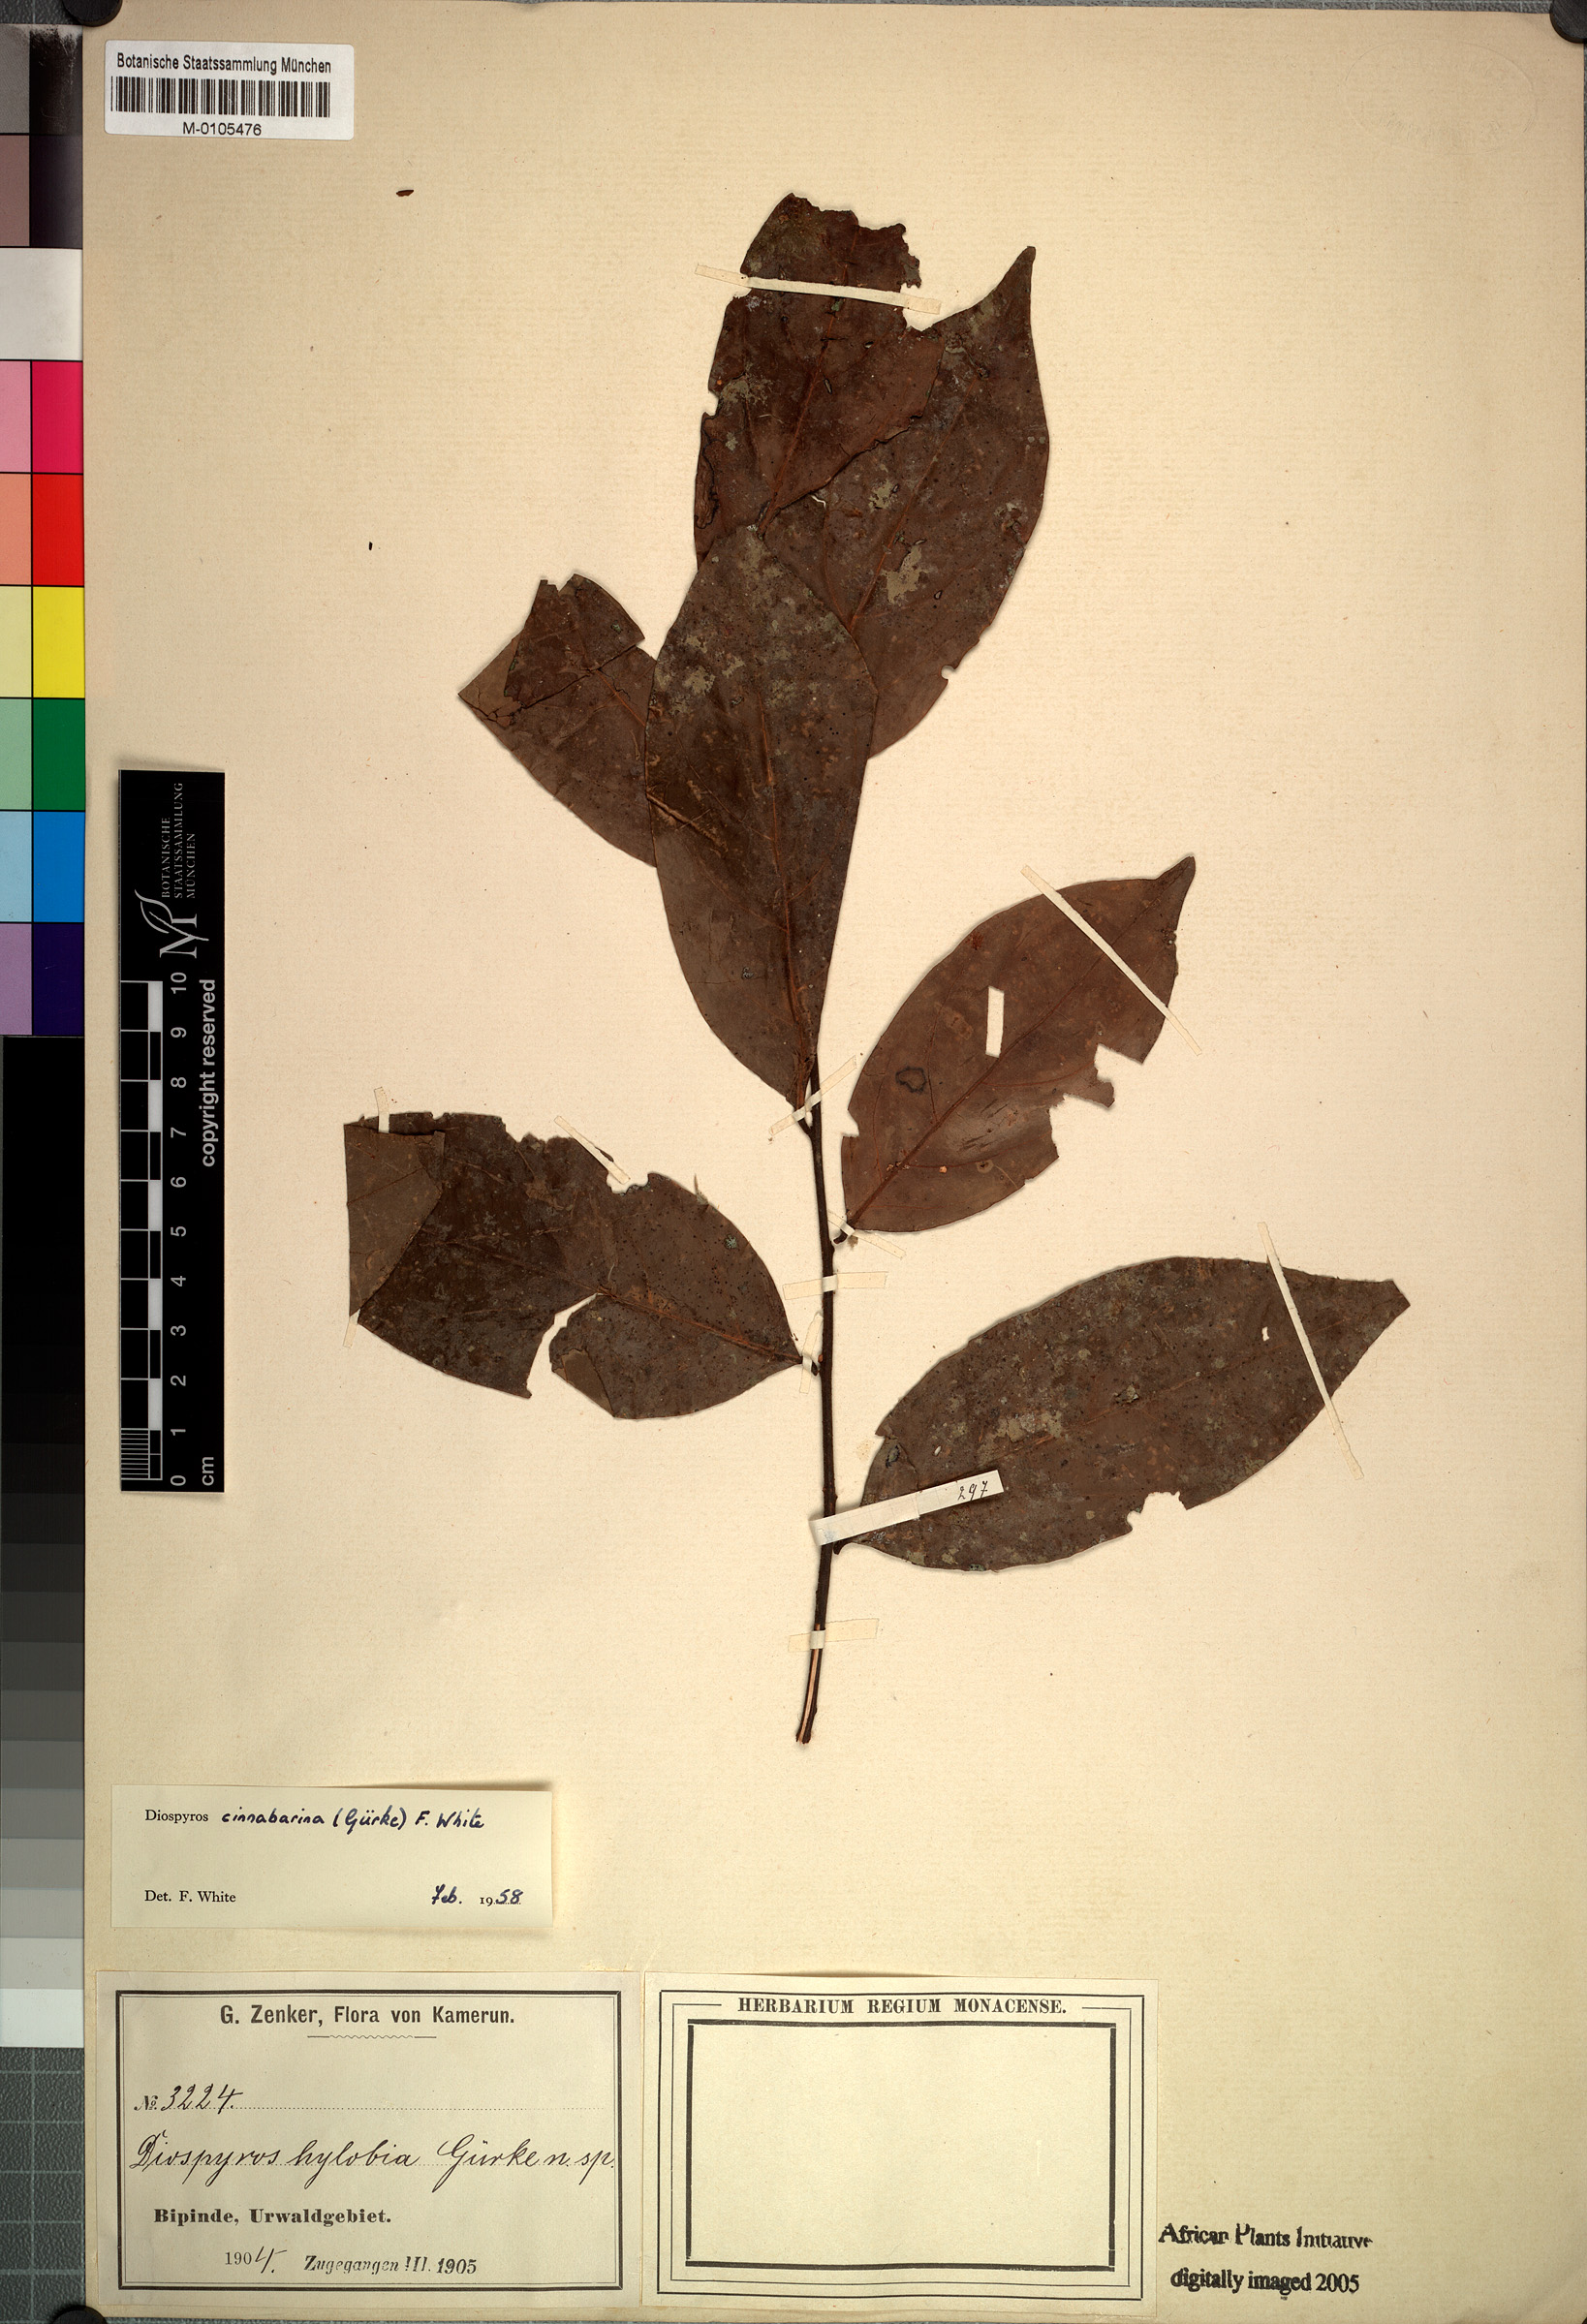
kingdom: Plantae
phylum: Tracheophyta
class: Magnoliopsida
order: Ericales
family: Ebenaceae
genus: Diospyros
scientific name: Diospyros cinnabarina
